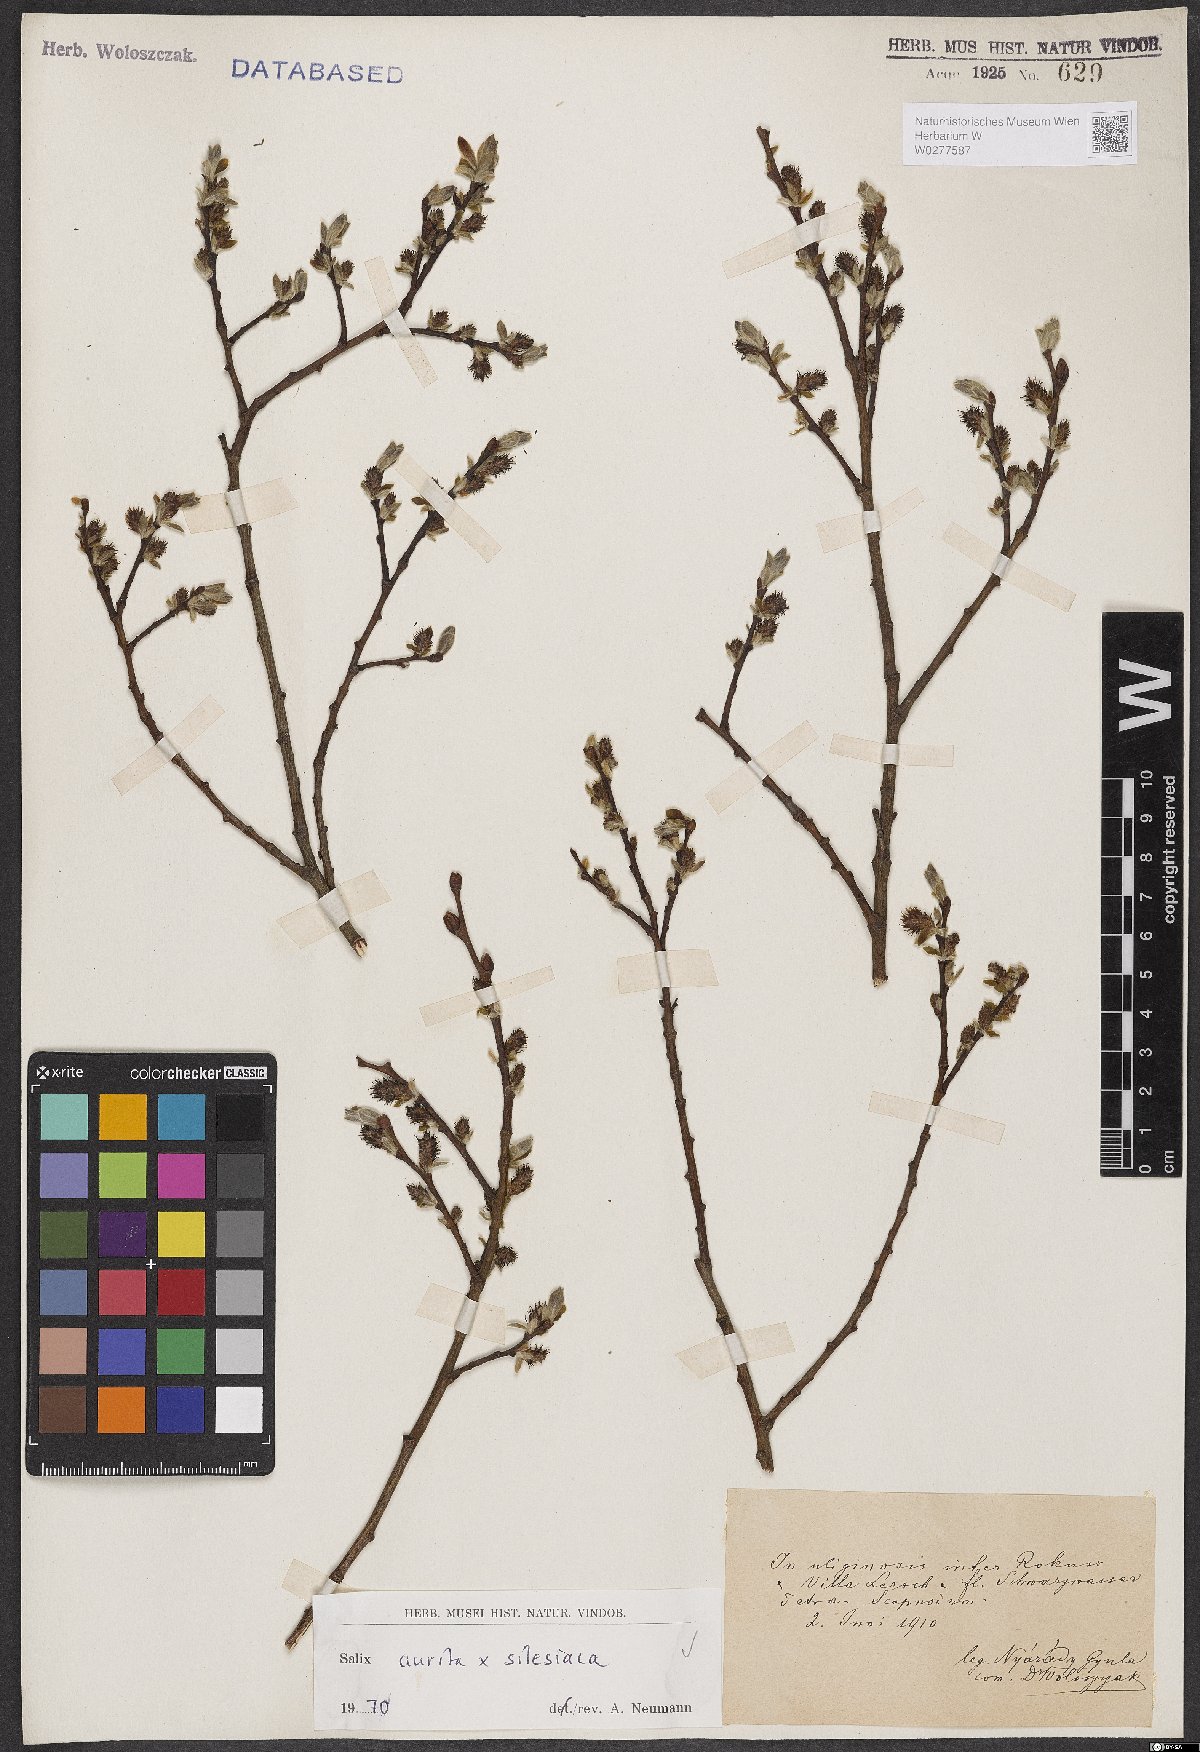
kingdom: Plantae
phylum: Tracheophyta
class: Magnoliopsida
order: Malpighiales
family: Salicaceae
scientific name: Salicaceae
